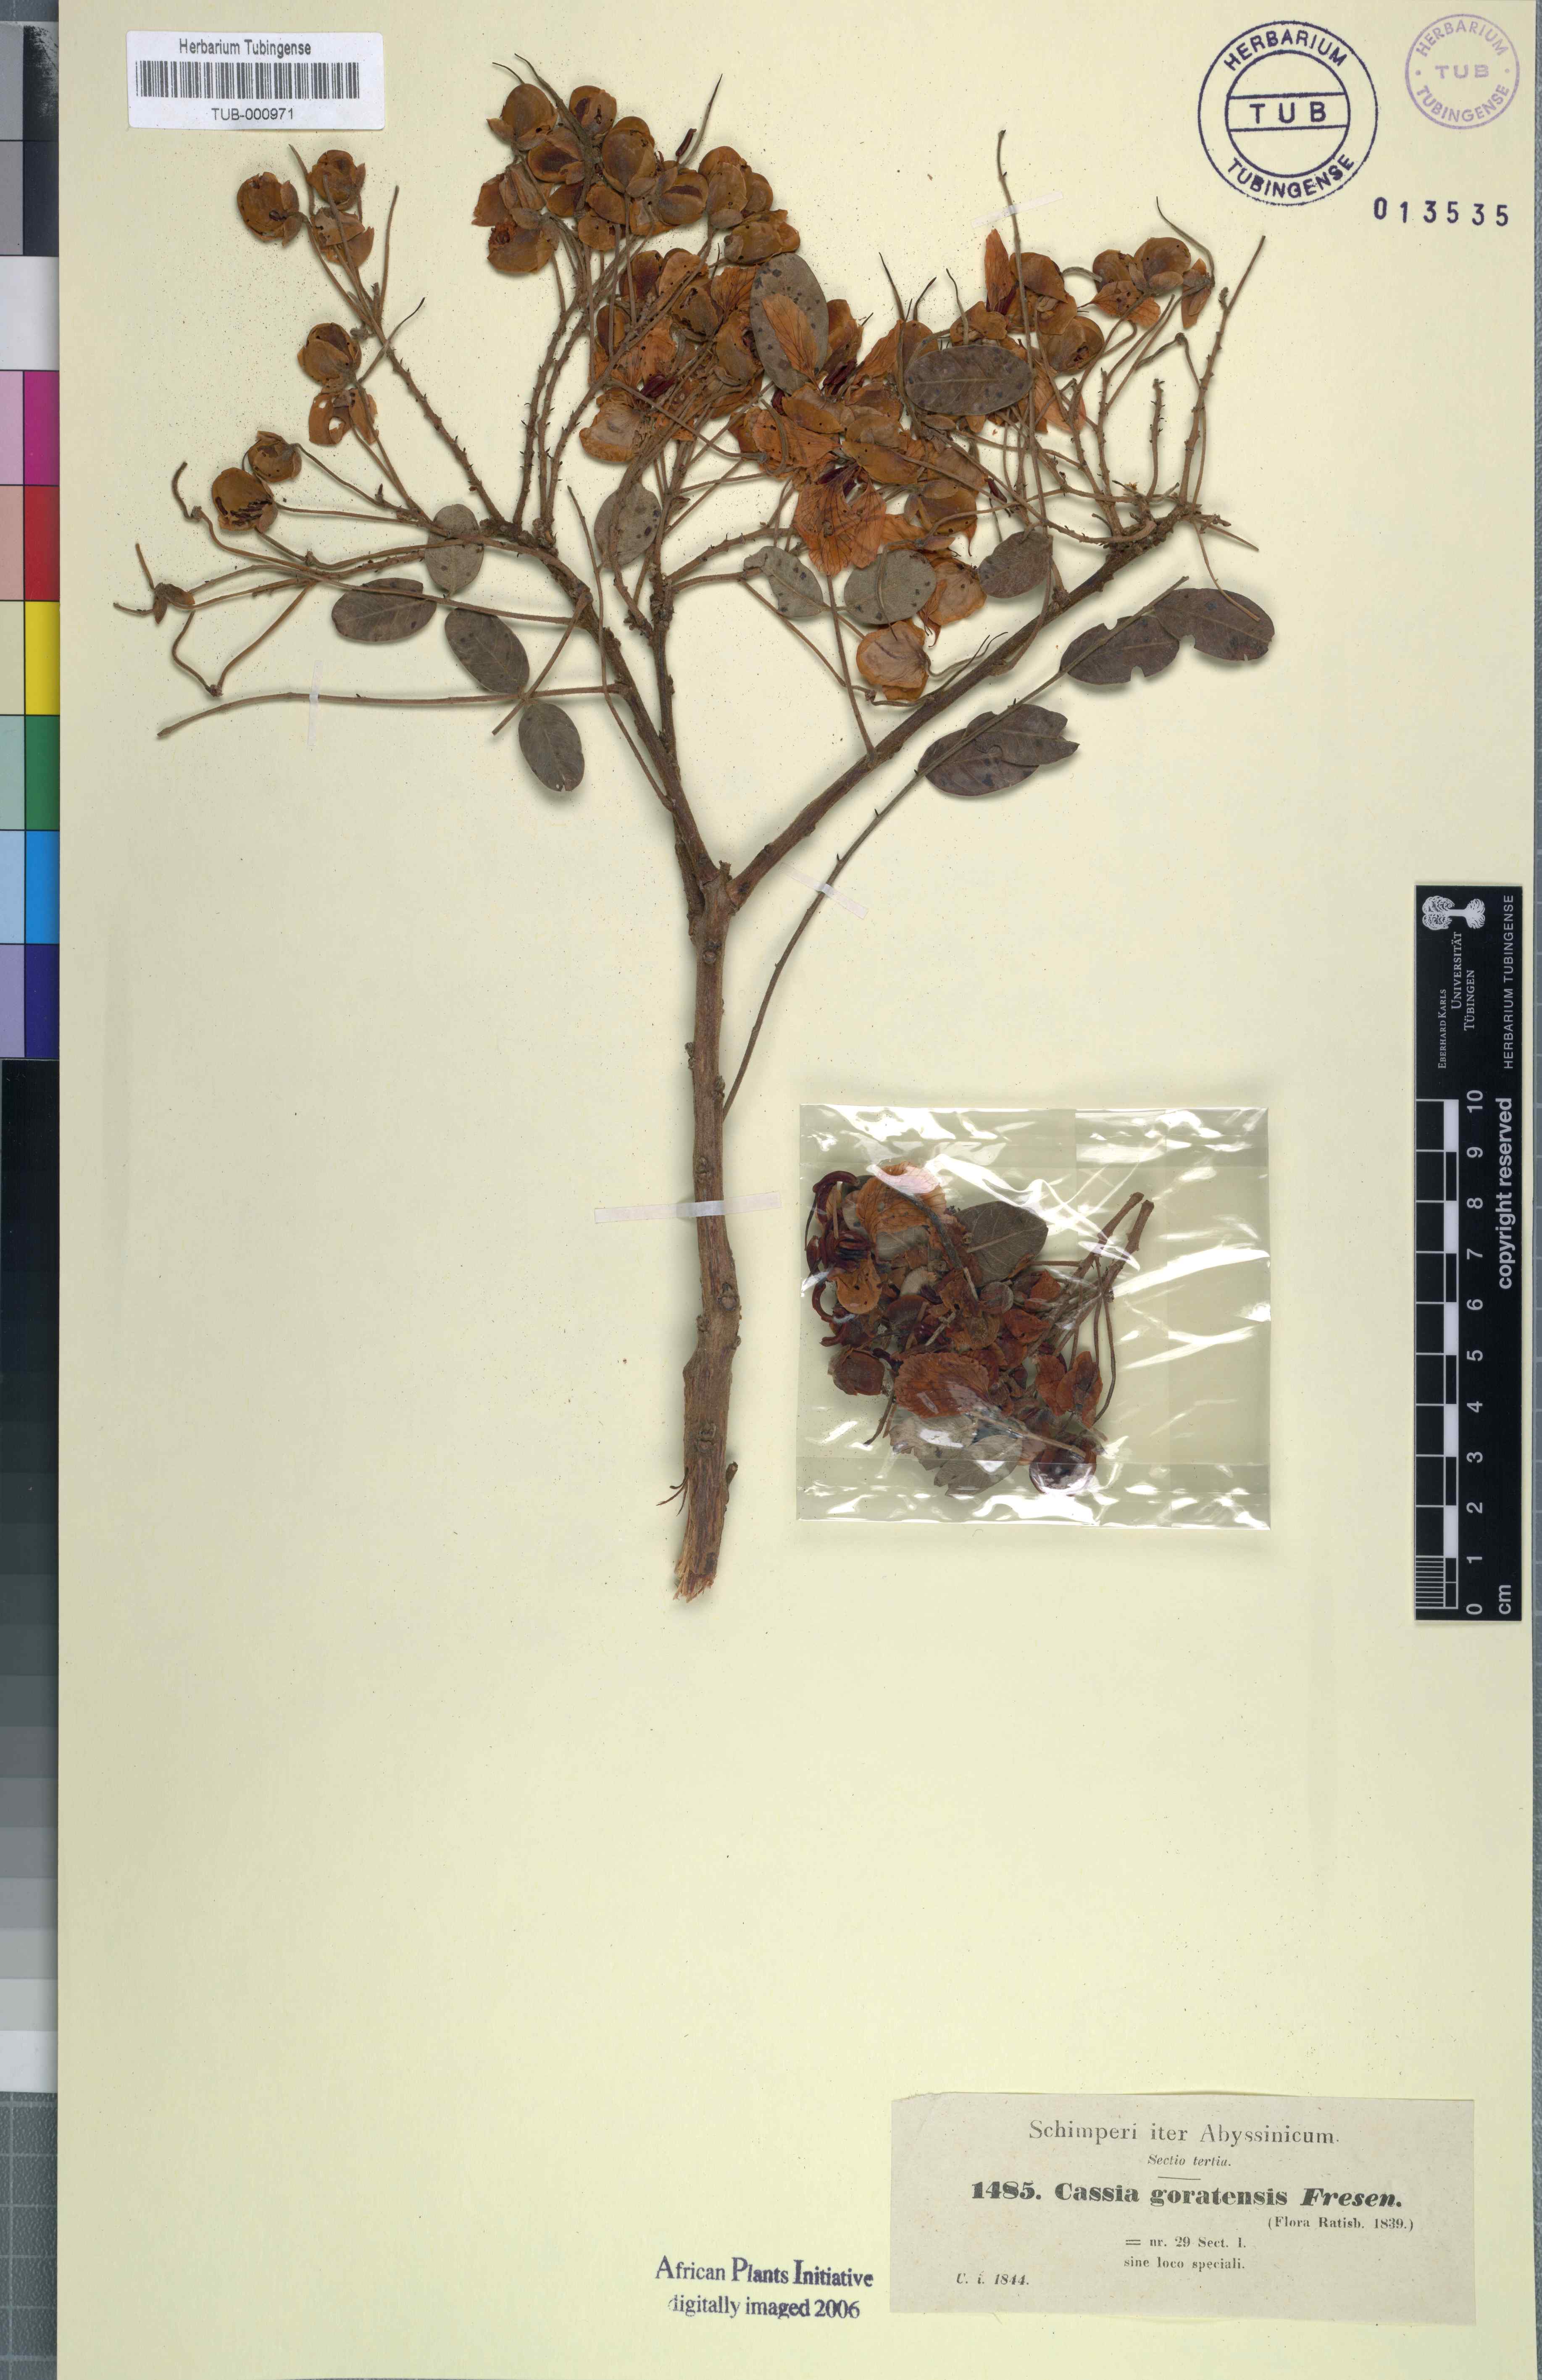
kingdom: Plantae
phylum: Tracheophyta
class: Magnoliopsida
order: Fabales
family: Fabaceae
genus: Senna
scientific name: Senna singueana
